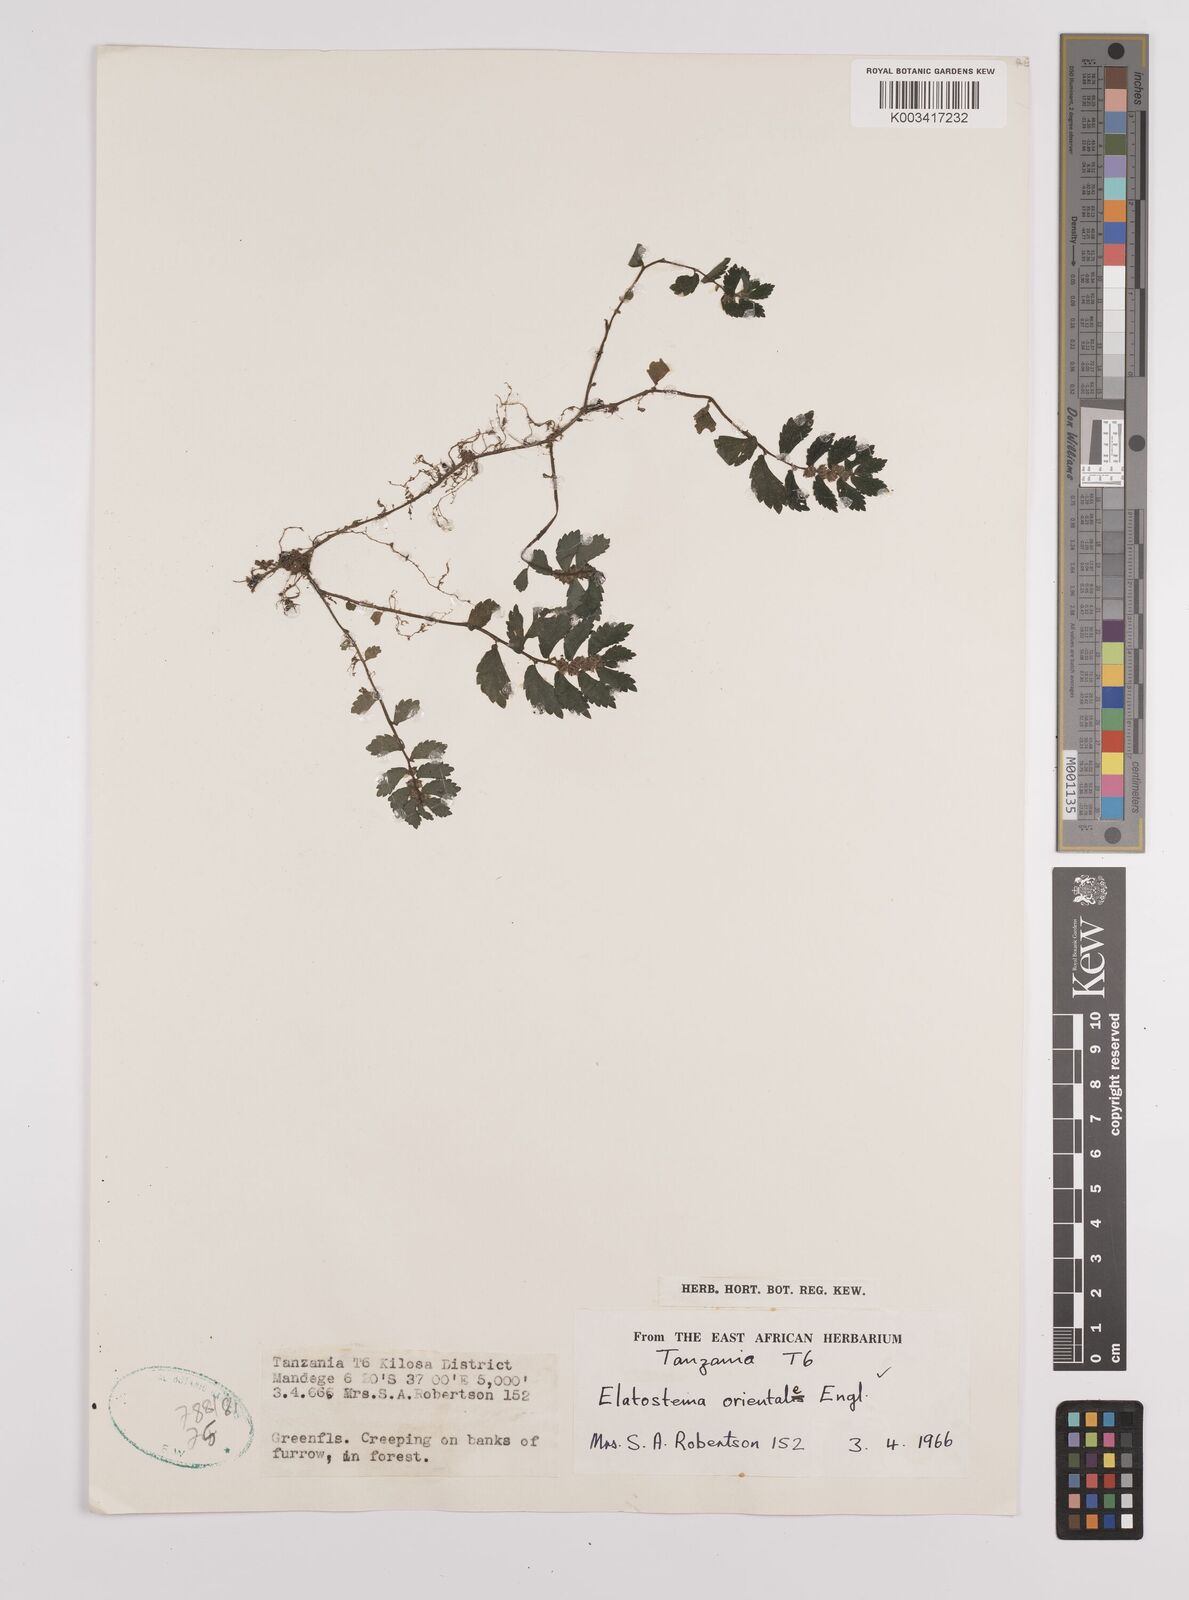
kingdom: Plantae
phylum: Tracheophyta
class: Magnoliopsida
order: Rosales
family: Urticaceae
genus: Elatostema
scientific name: Elatostema monticola
